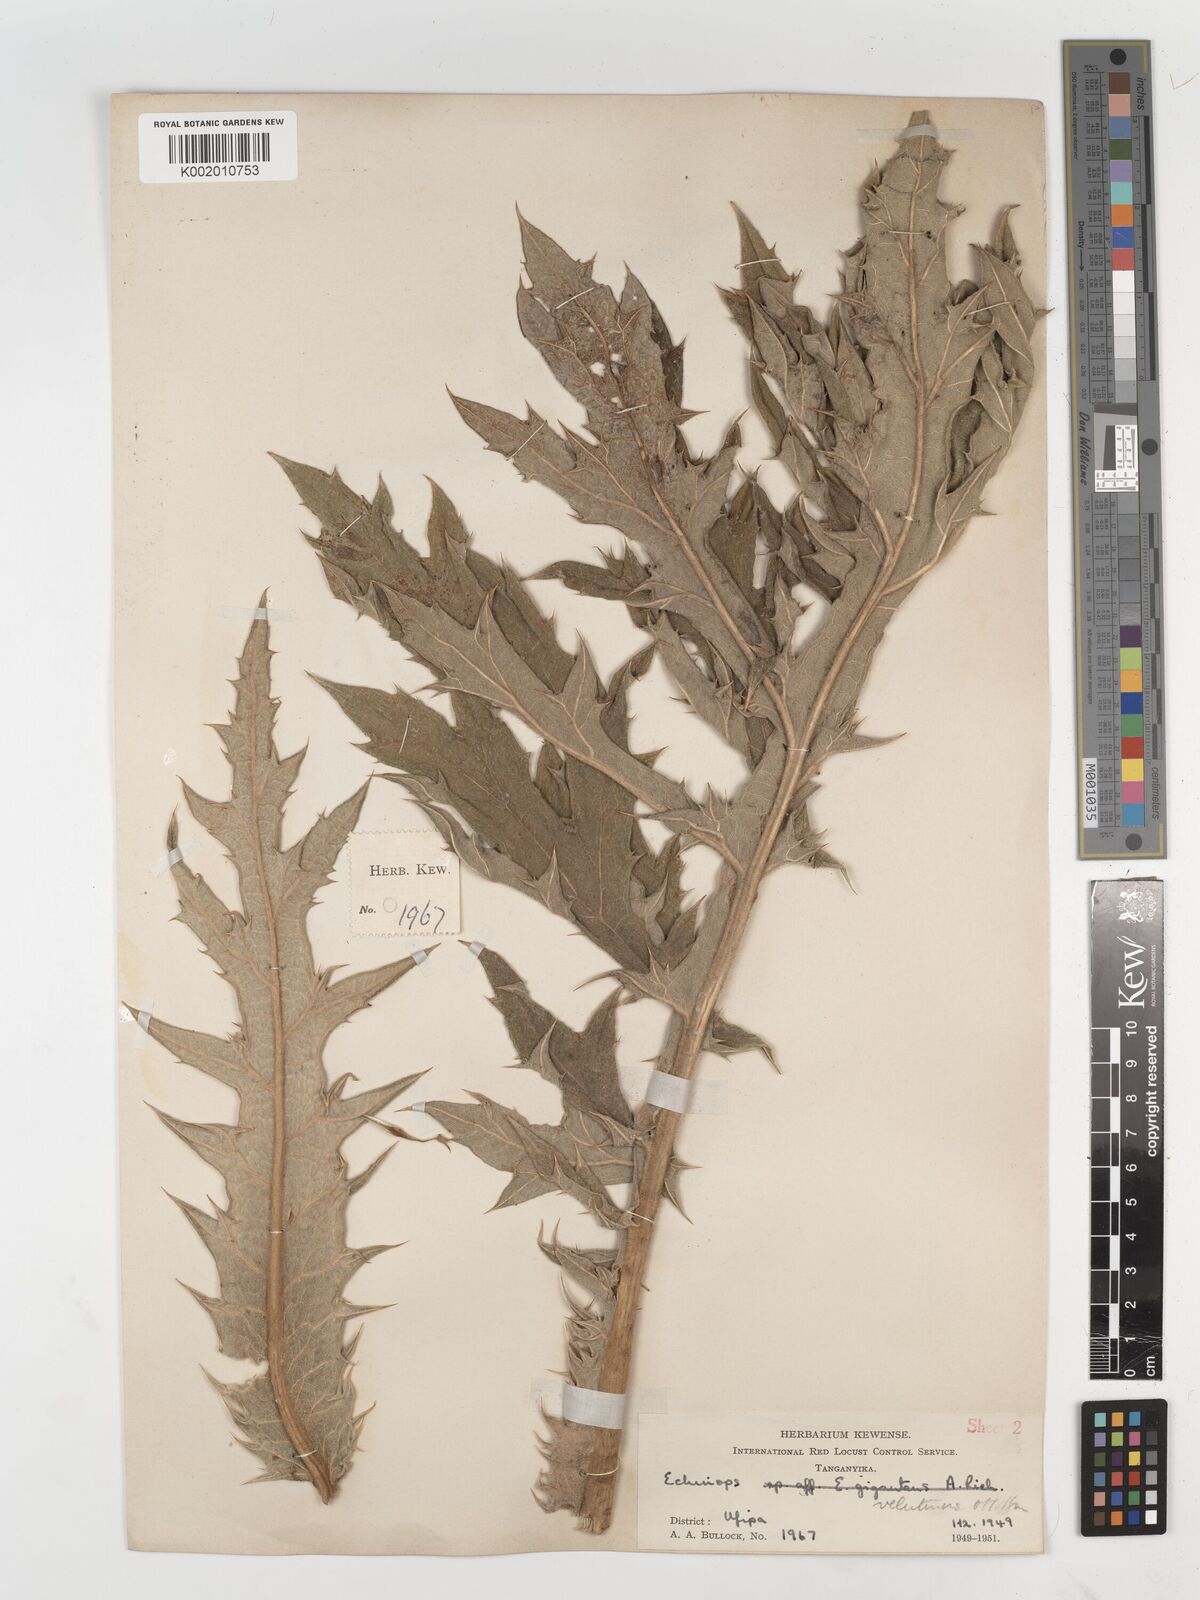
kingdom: Plantae
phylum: Tracheophyta
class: Magnoliopsida
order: Asterales
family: Asteraceae
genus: Echinops
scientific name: Echinops giganteus
